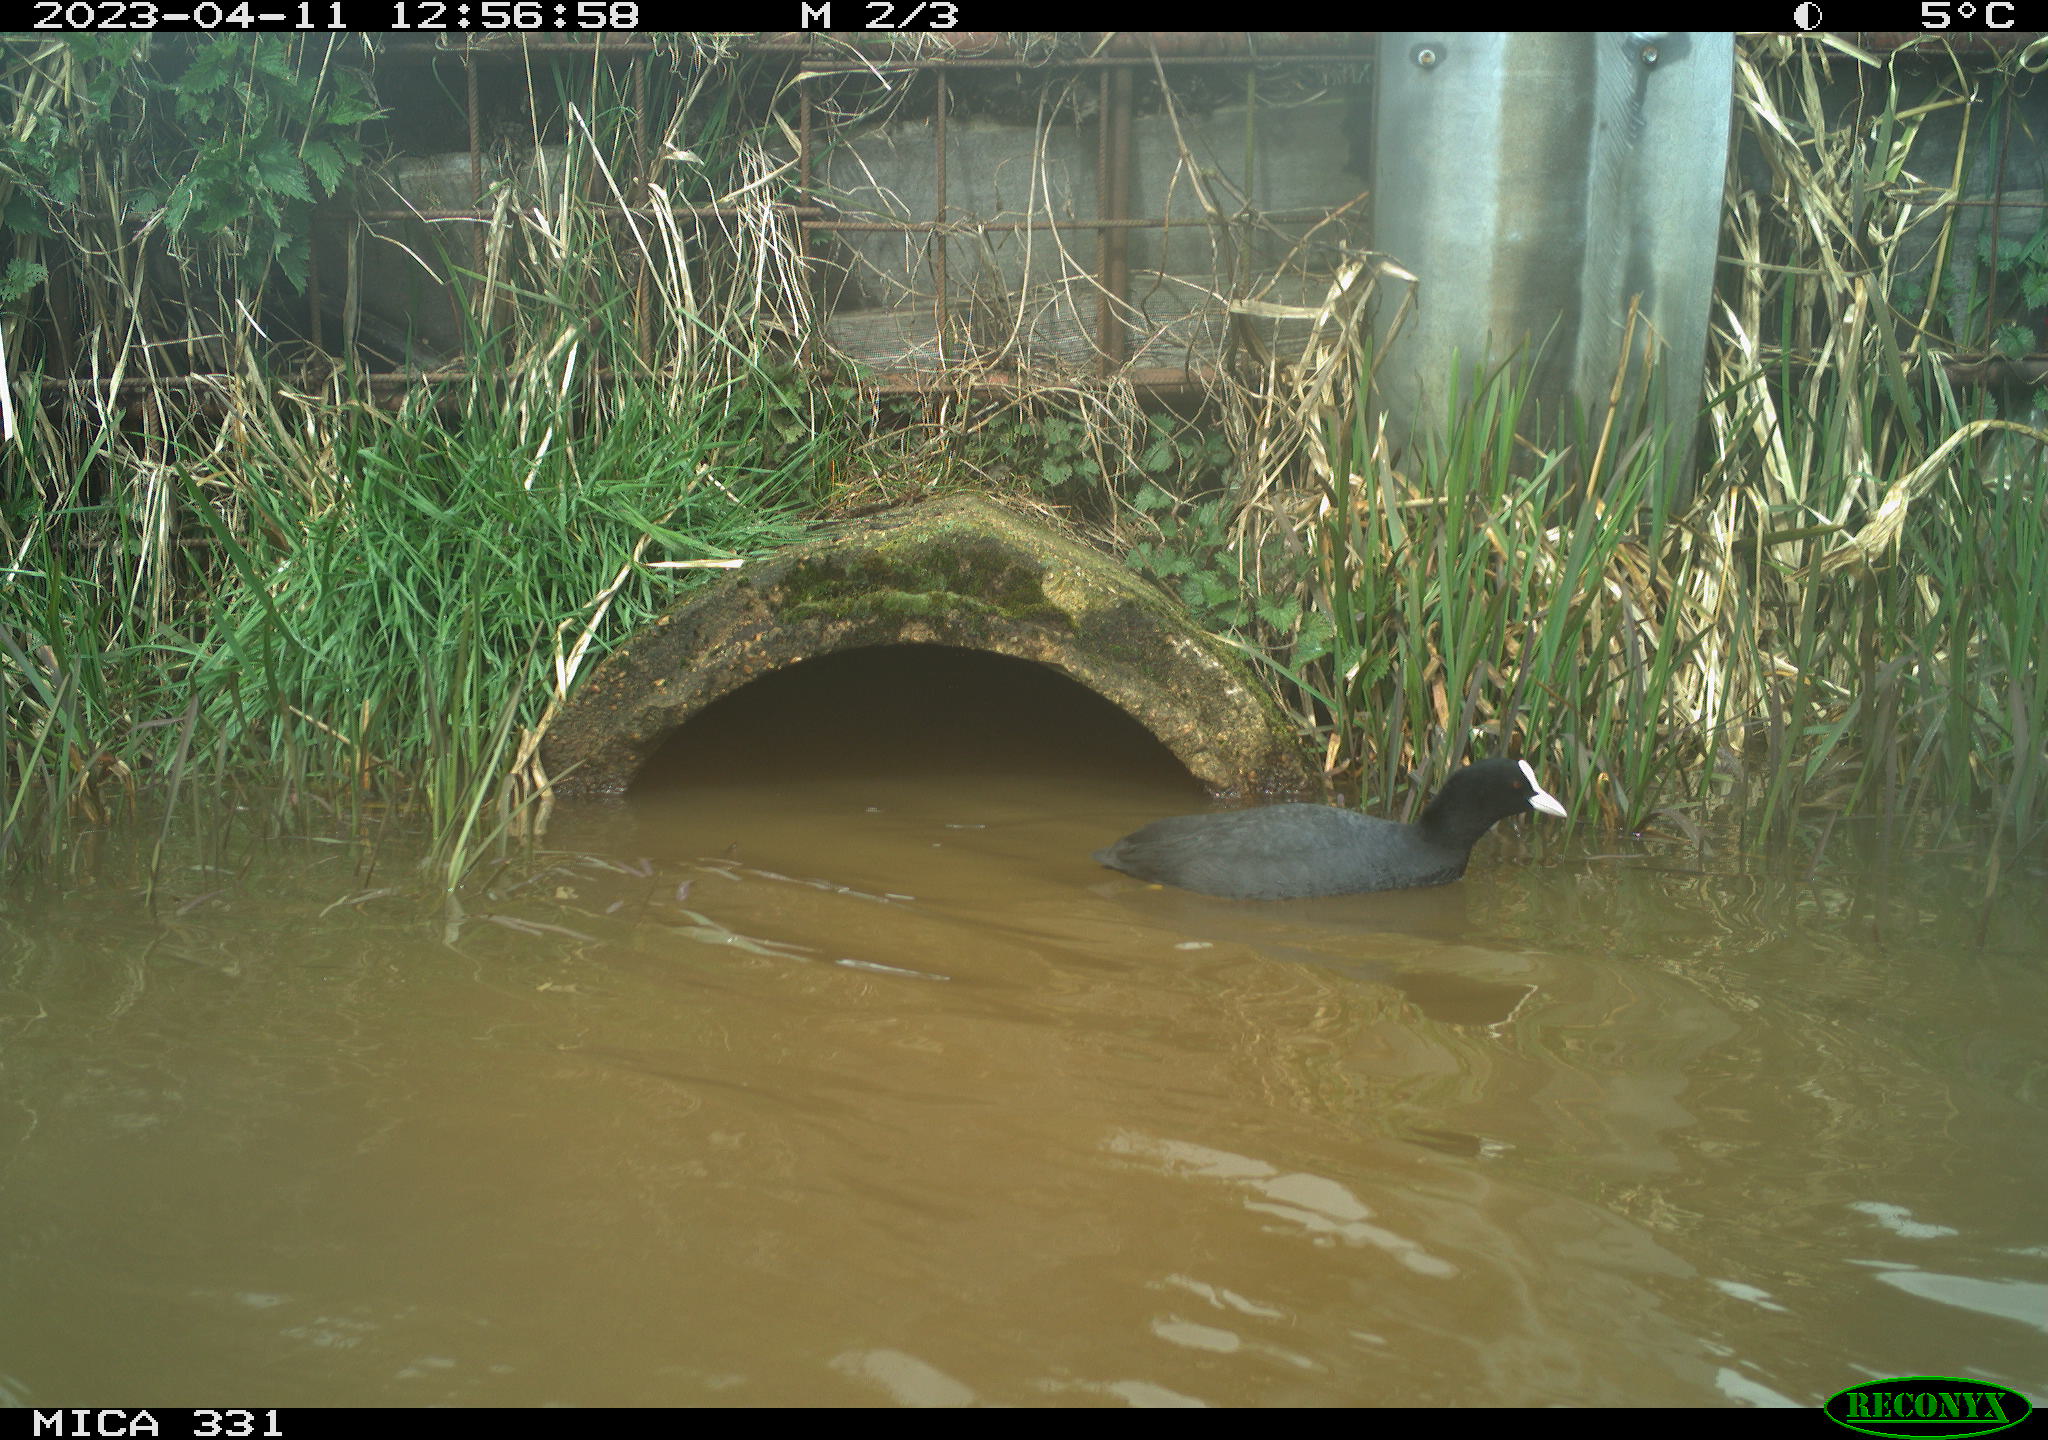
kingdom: Animalia
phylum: Chordata
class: Aves
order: Gruiformes
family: Rallidae
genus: Fulica
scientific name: Fulica atra
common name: Eurasian coot
